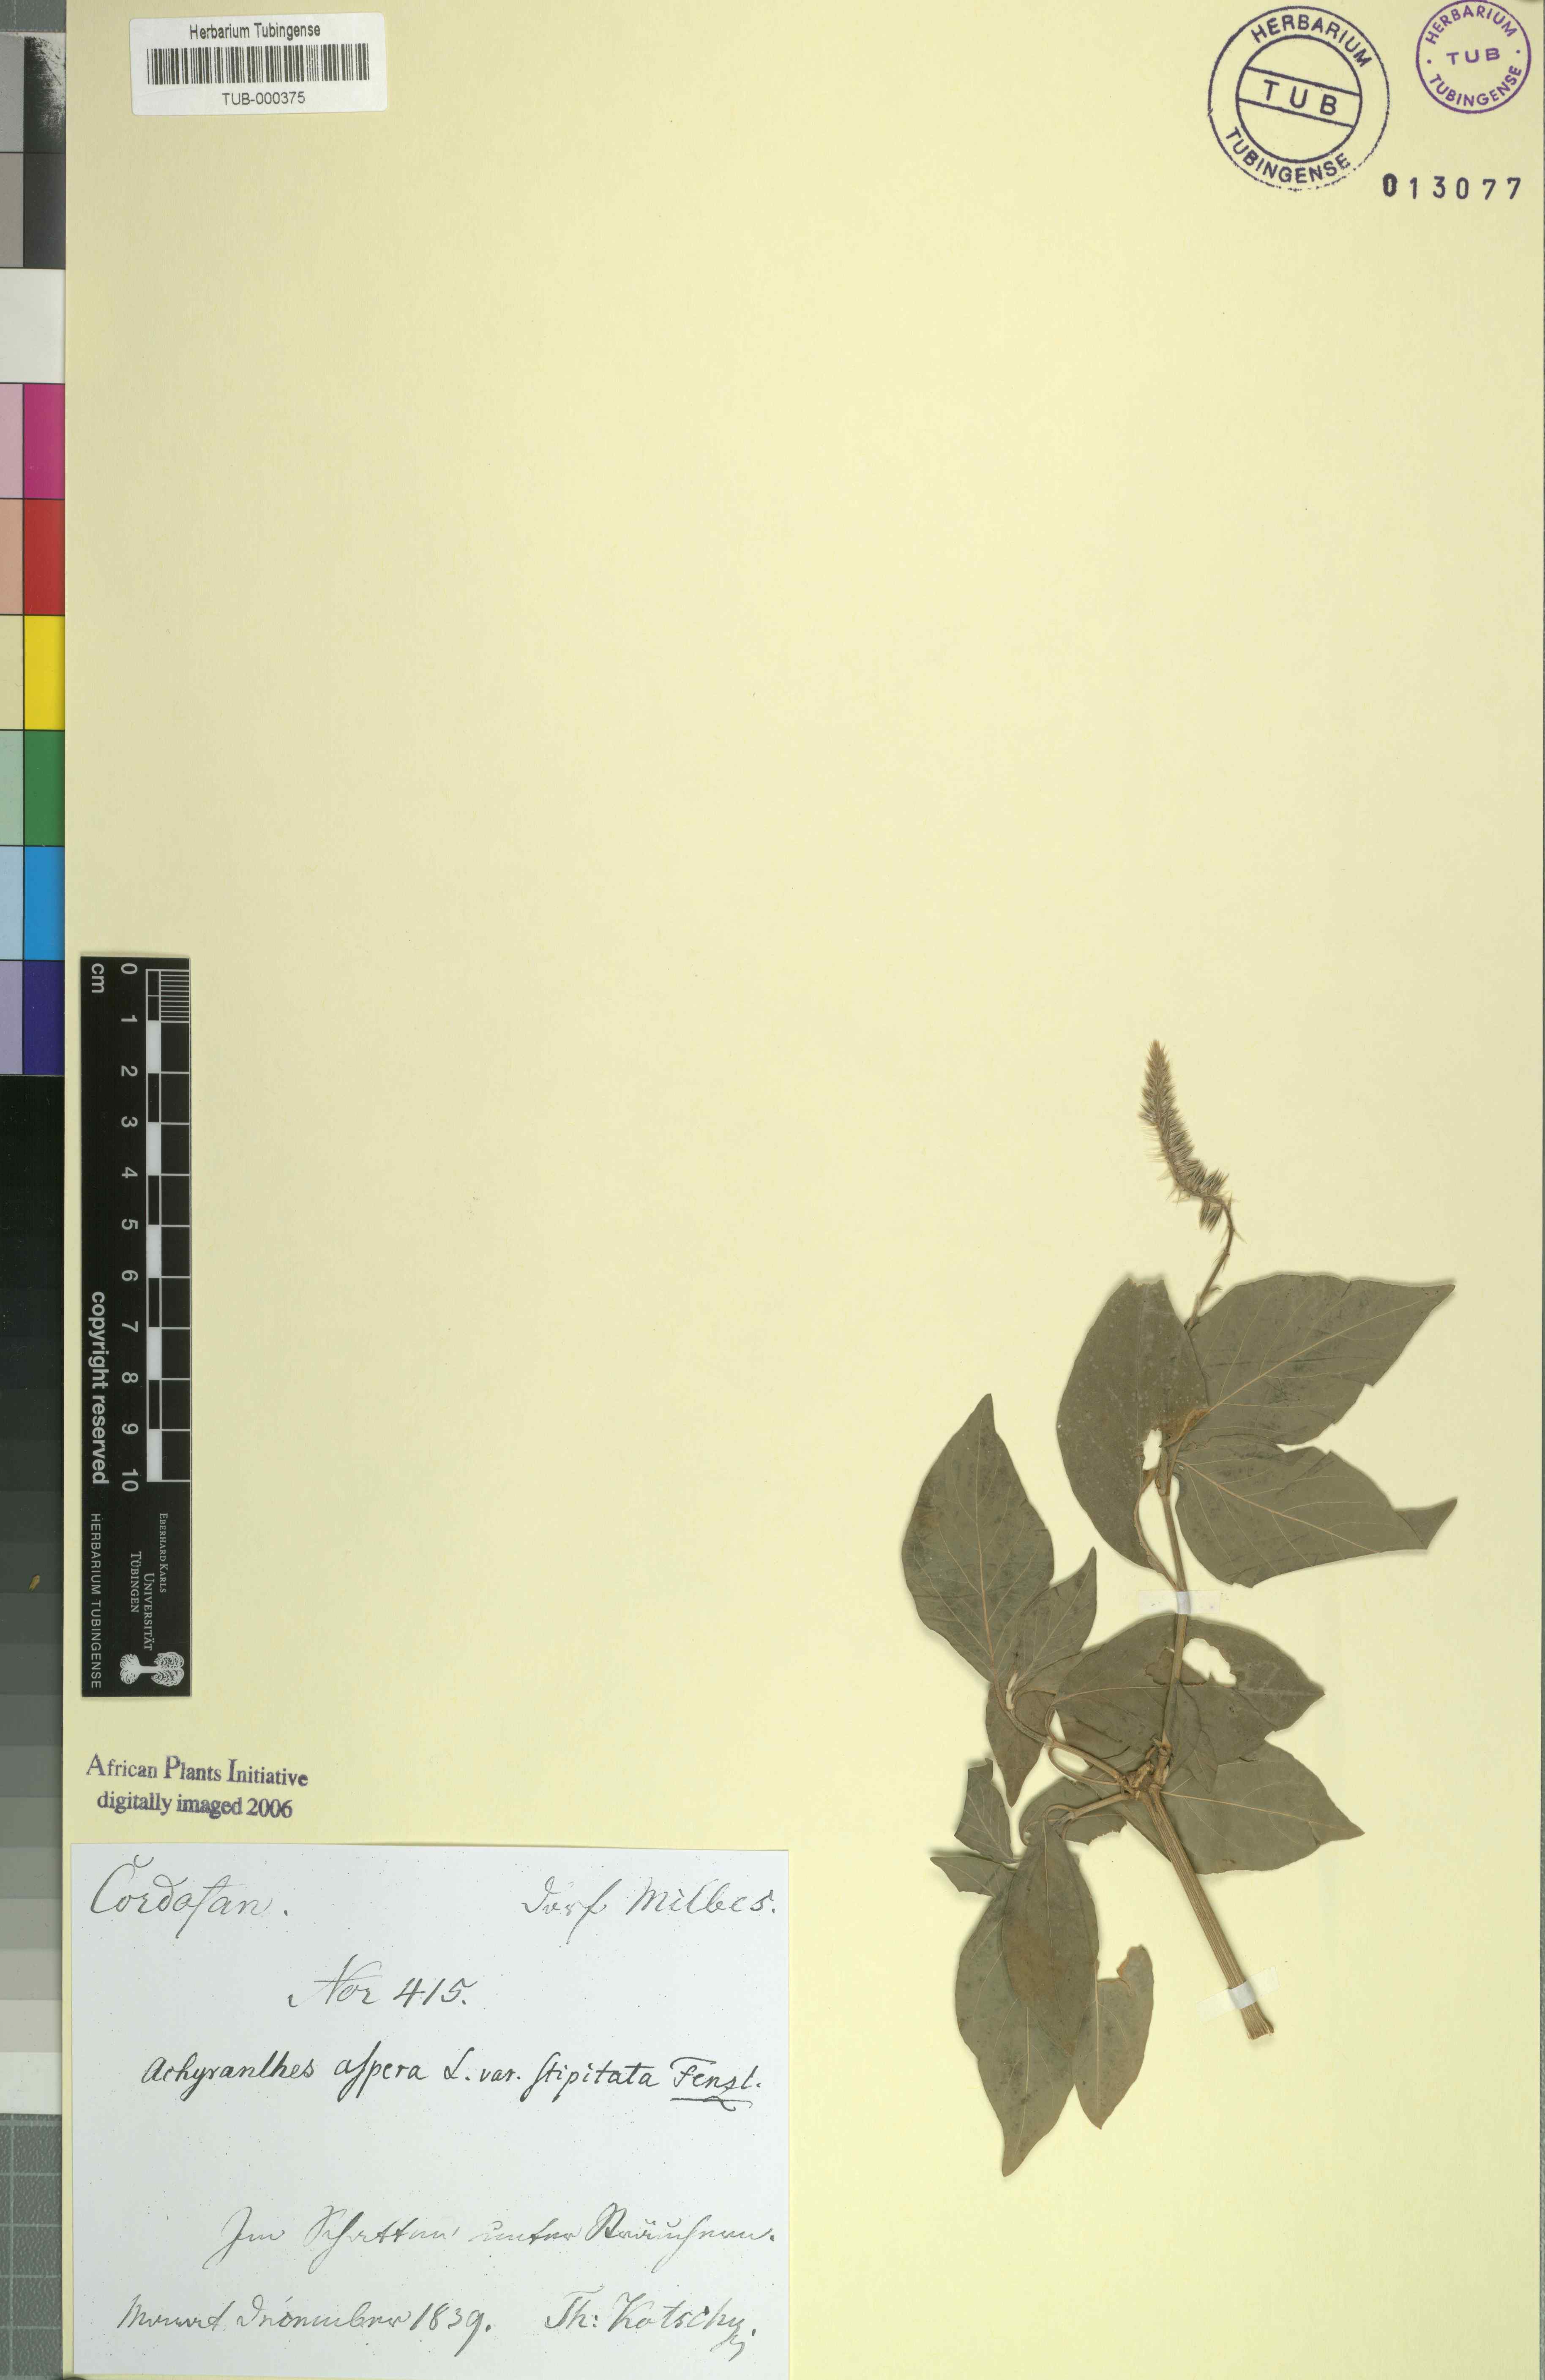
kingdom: Plantae
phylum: Tracheophyta
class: Magnoliopsida
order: Caryophyllales
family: Amaranthaceae
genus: Achyranthes
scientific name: Achyranthes aspera
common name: Devil's horsewhip
